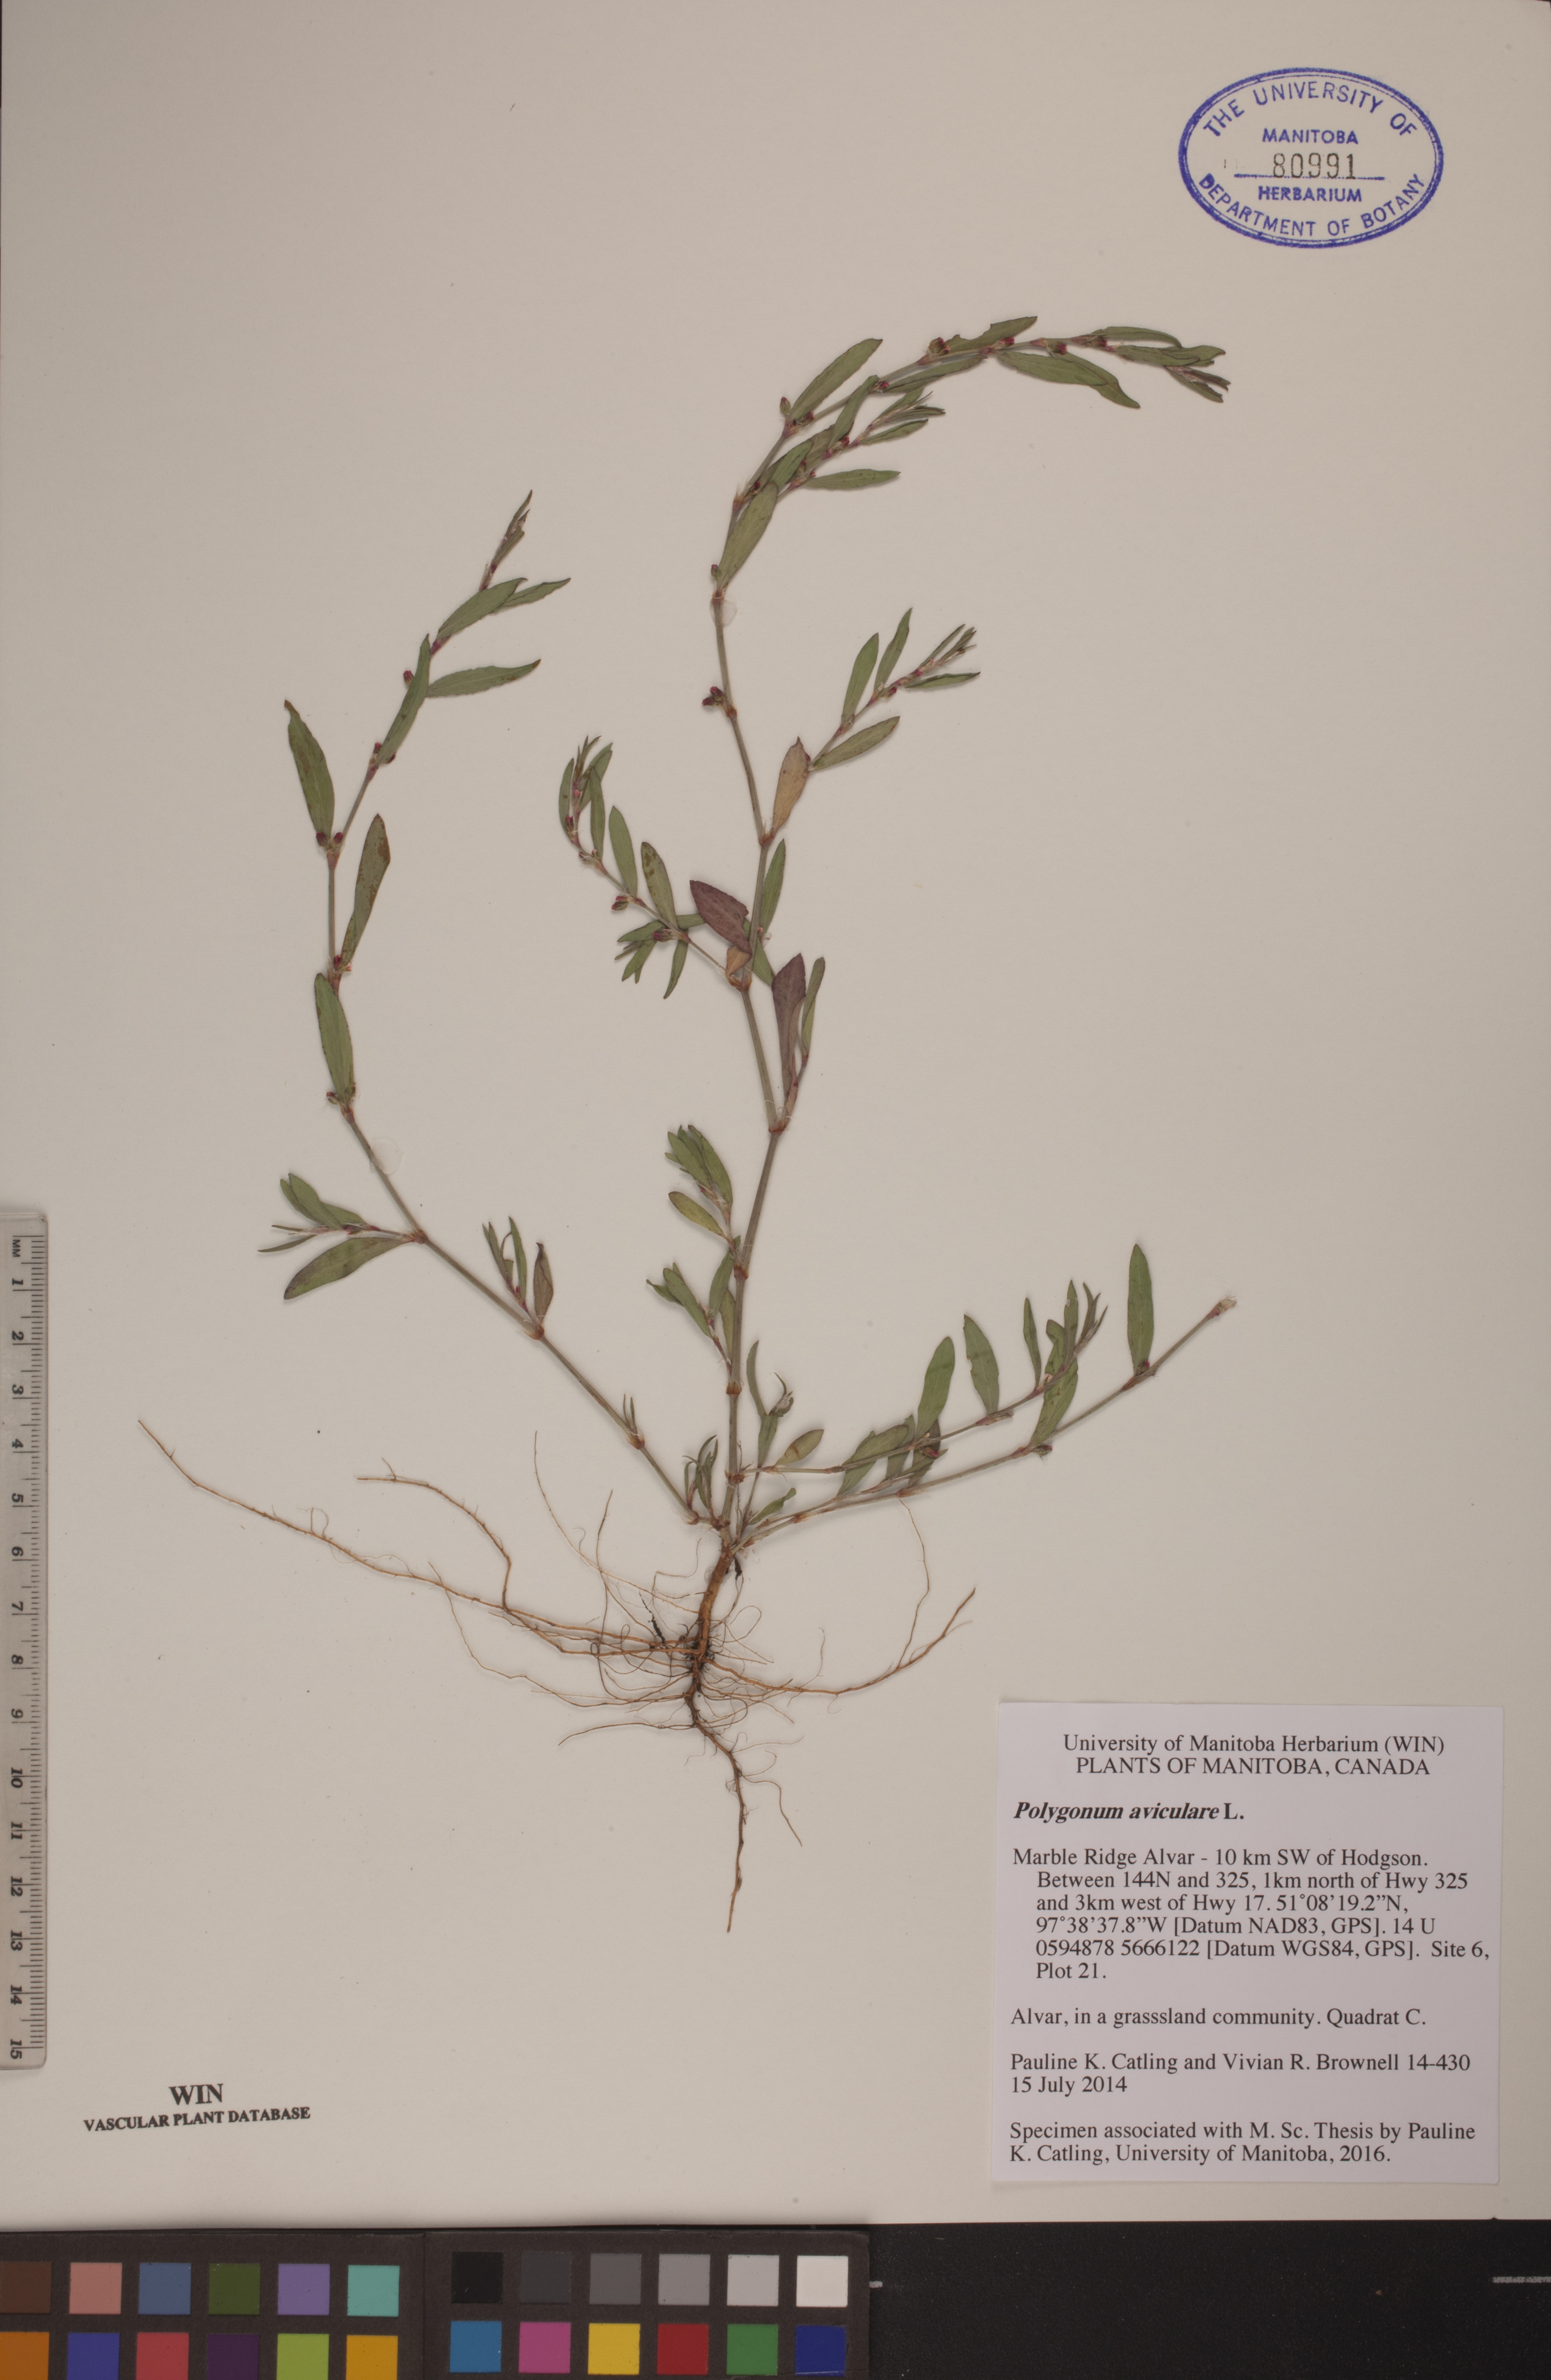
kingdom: Plantae
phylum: Tracheophyta
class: Magnoliopsida
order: Caryophyllales
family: Polygonaceae
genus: Polygonum
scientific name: Polygonum aviculare
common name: Prostrate knotweed
